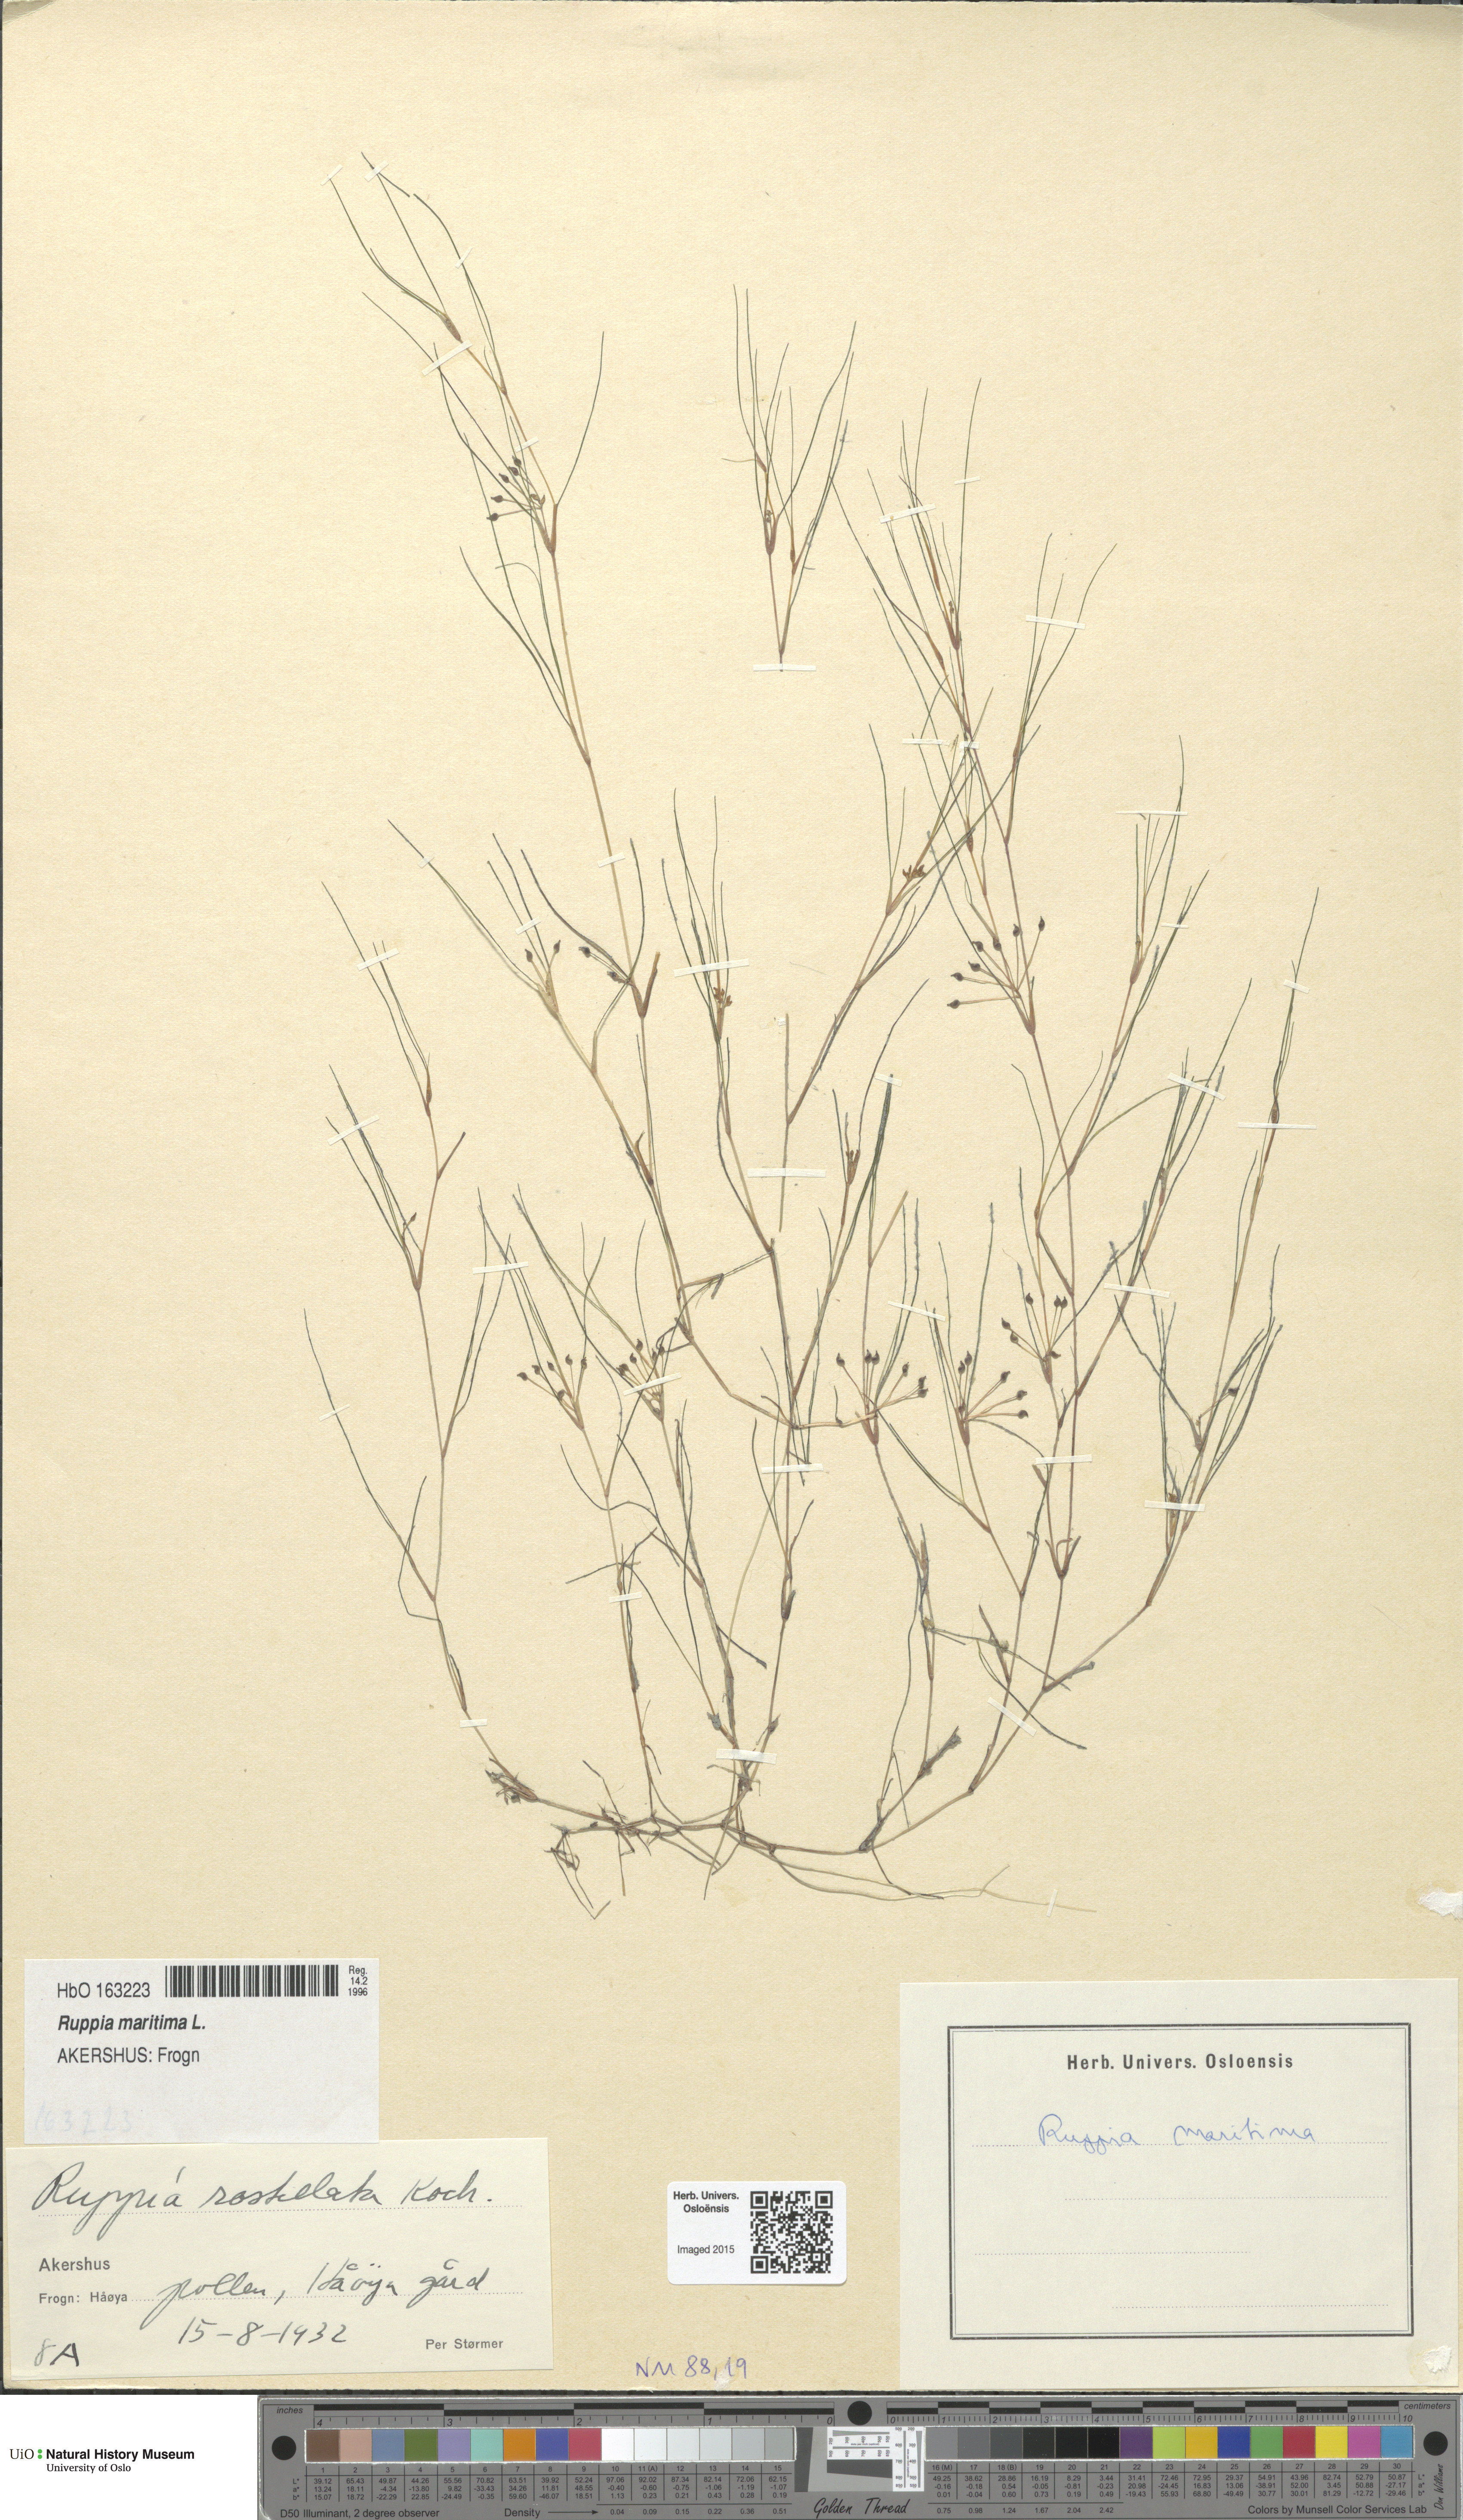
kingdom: Plantae
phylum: Tracheophyta
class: Liliopsida
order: Alismatales
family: Ruppiaceae
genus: Ruppia
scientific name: Ruppia maritima
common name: Beaked tasselweed
